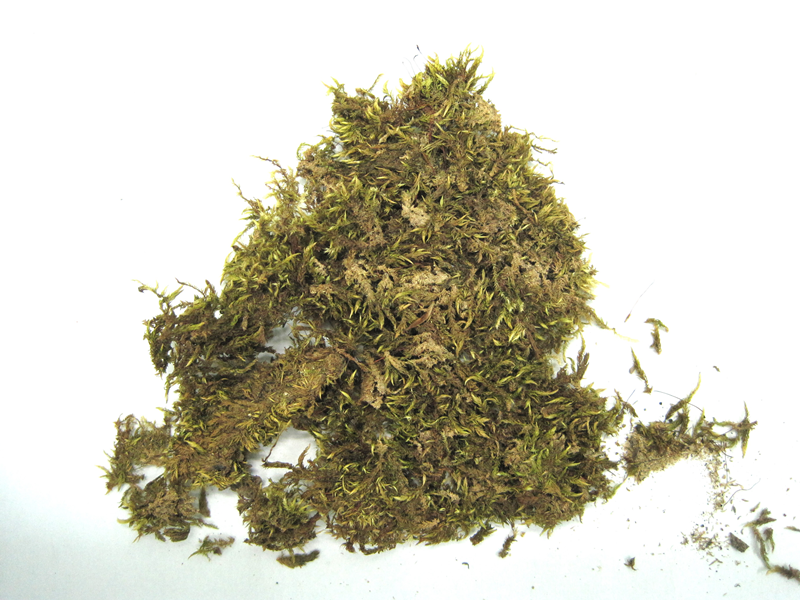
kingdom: Plantae
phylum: Bryophyta
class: Bryopsida
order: Hypnales
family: Sematophyllaceae
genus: Papillidiopsis
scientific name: Papillidiopsis ramulina
